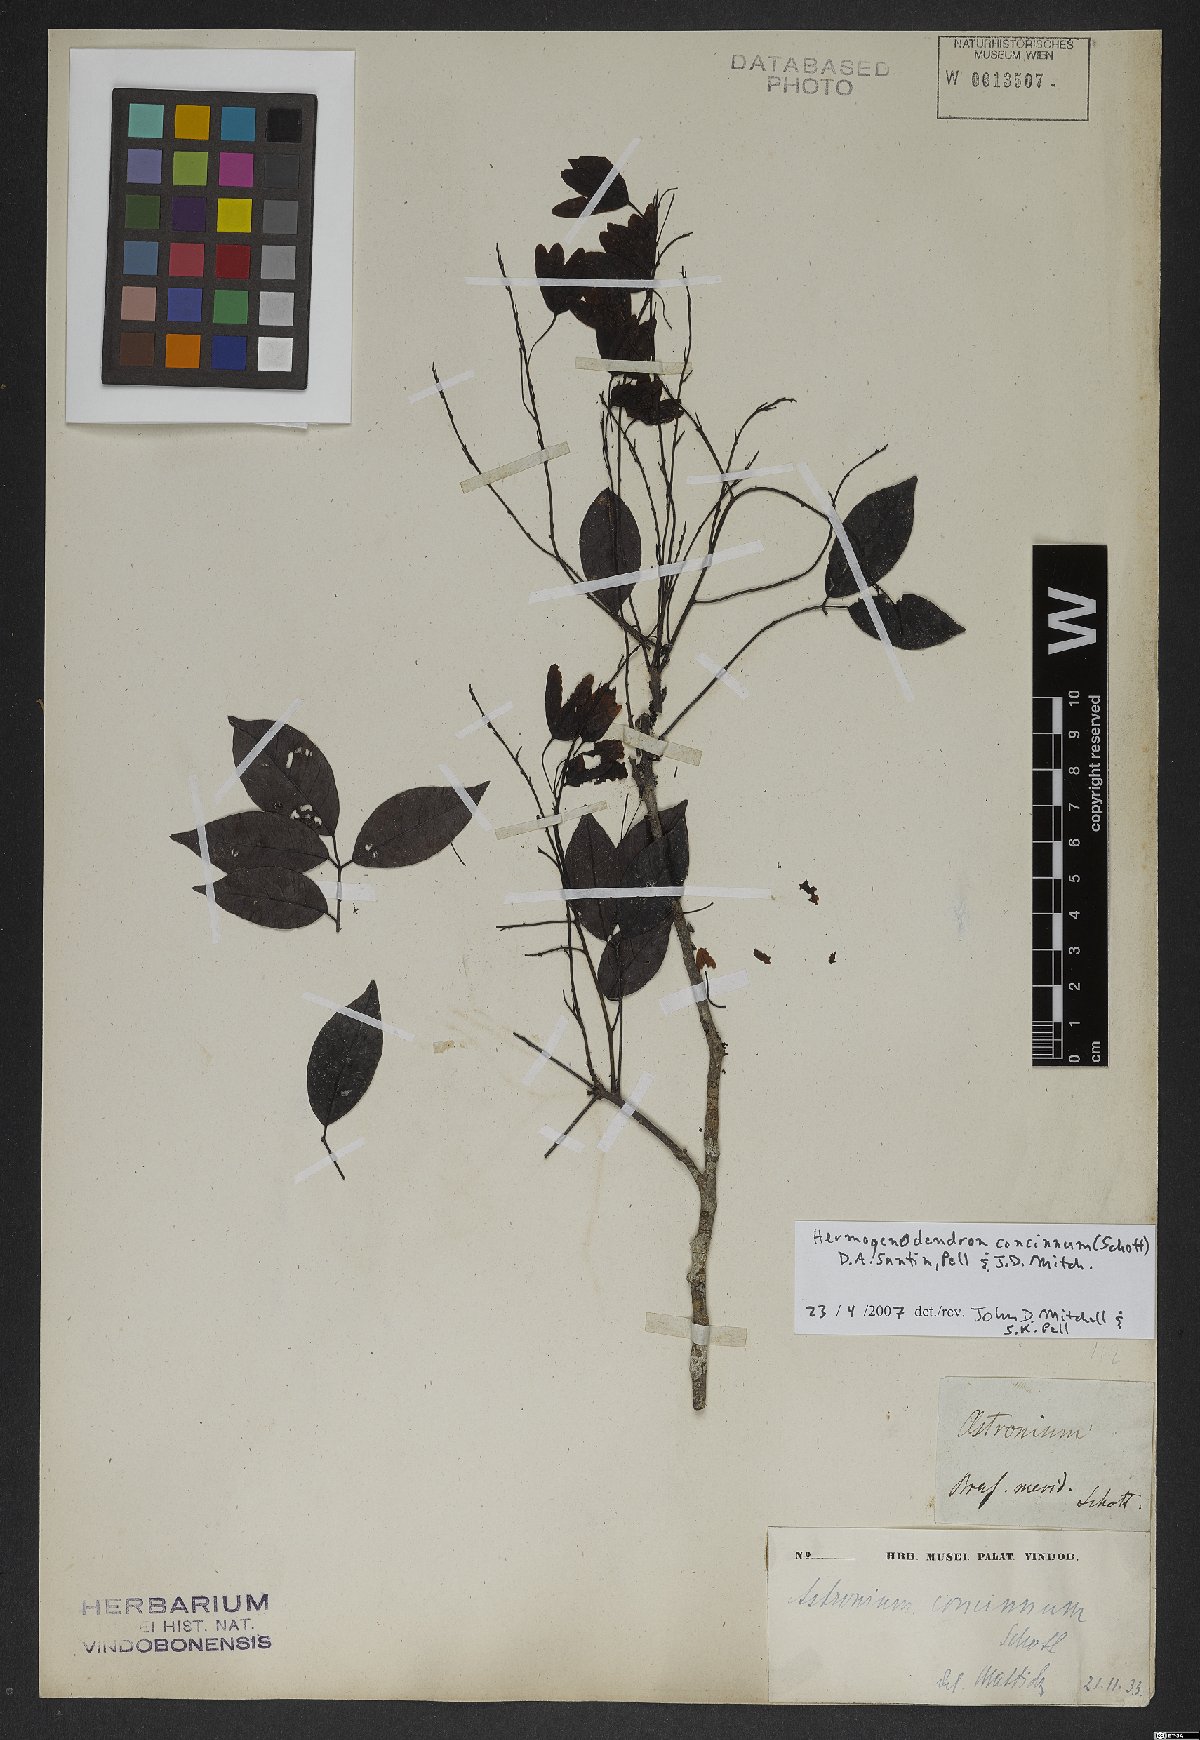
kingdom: Plantae
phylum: Tracheophyta
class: Magnoliopsida
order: Sapindales
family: Anacardiaceae
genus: Astronium
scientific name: Astronium concinnum
